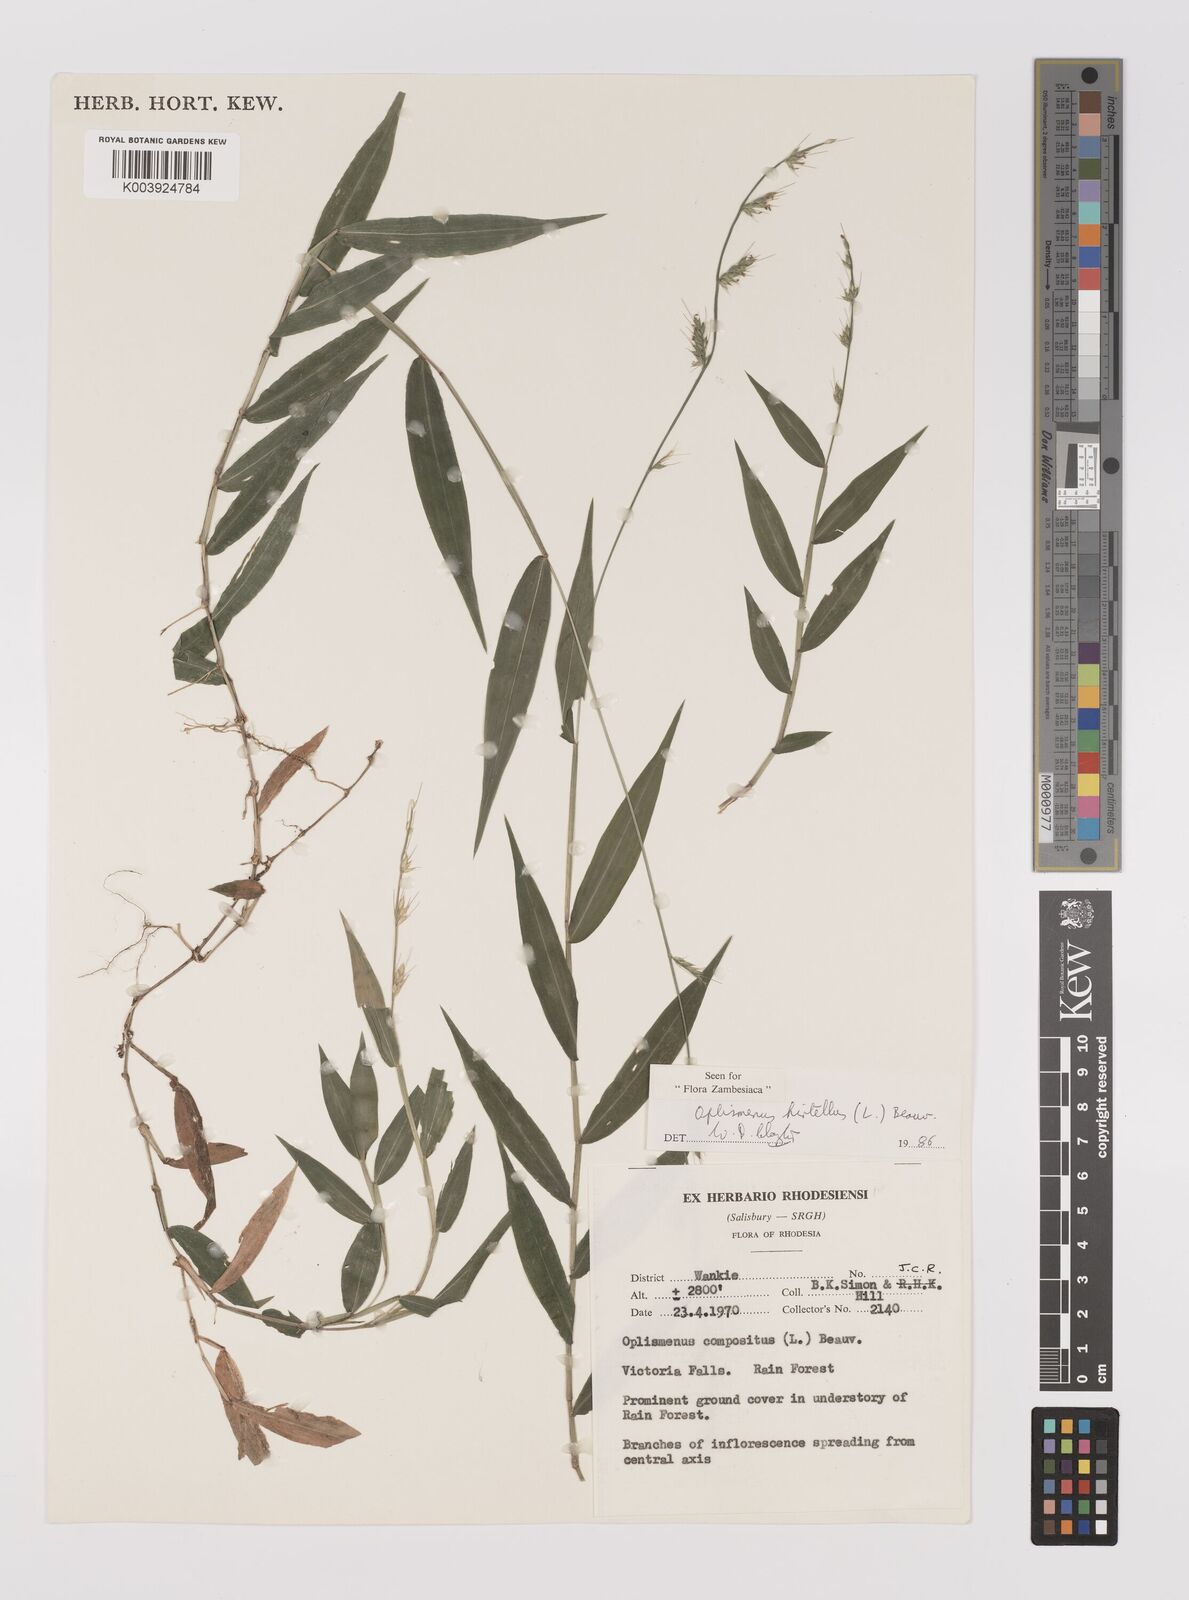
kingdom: Plantae
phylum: Tracheophyta
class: Liliopsida
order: Poales
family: Poaceae
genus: Oplismenus
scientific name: Oplismenus hirtellus
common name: Basketgrass
